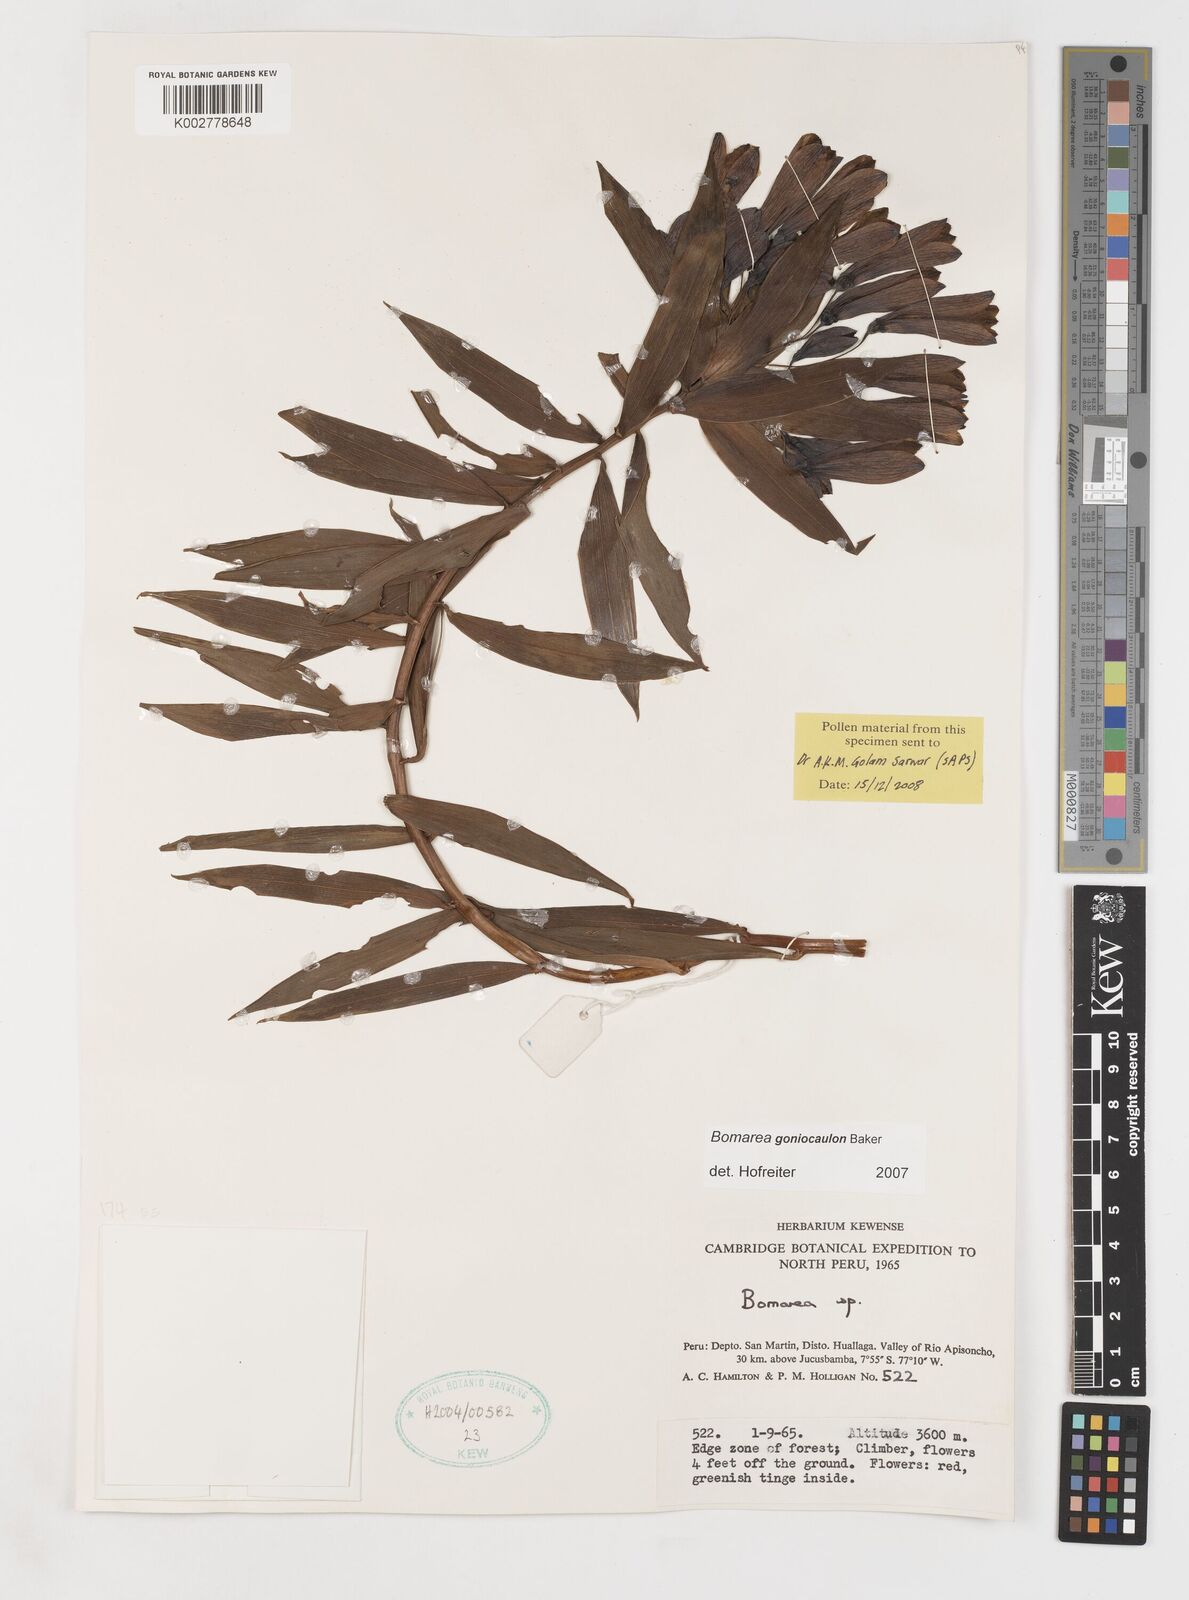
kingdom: Plantae
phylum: Tracheophyta
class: Liliopsida
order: Liliales
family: Alstroemeriaceae
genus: Bomarea
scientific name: Bomarea goniocaulon
